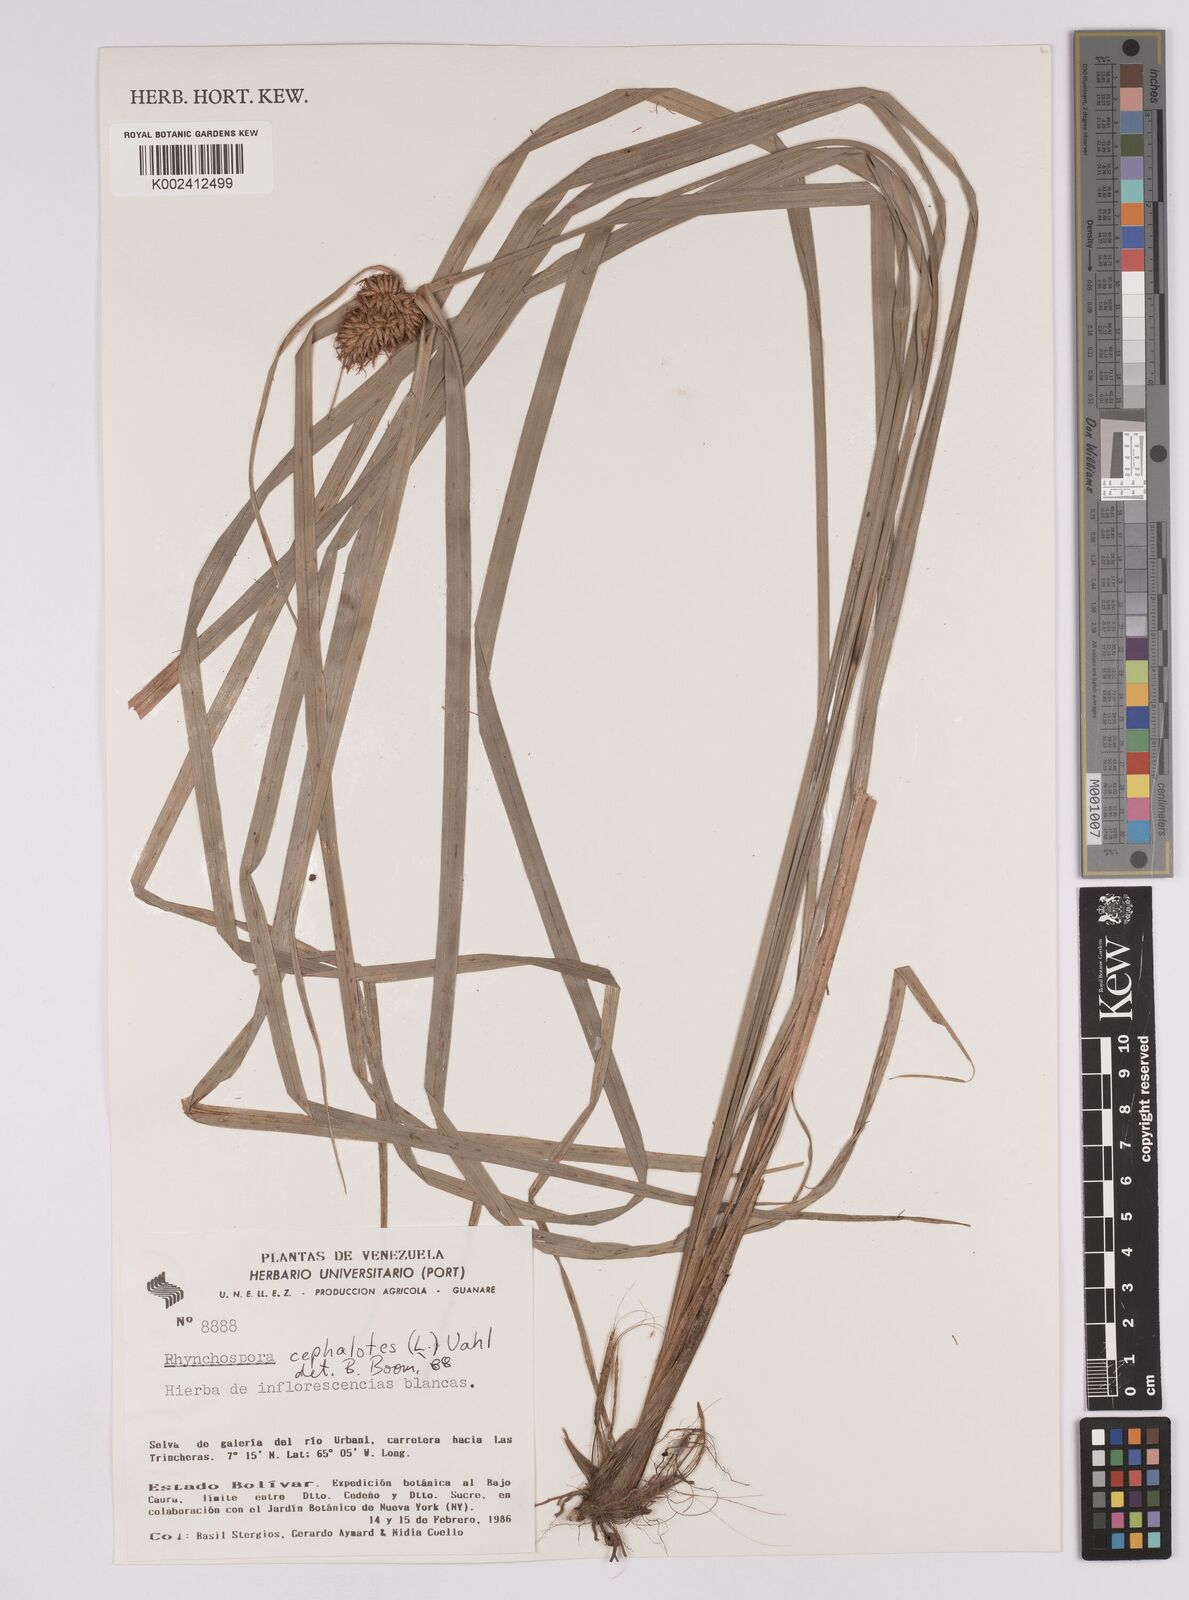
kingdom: Plantae
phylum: Tracheophyta
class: Liliopsida
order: Poales
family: Cyperaceae
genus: Rhynchospora
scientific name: Rhynchospora cephalotes
